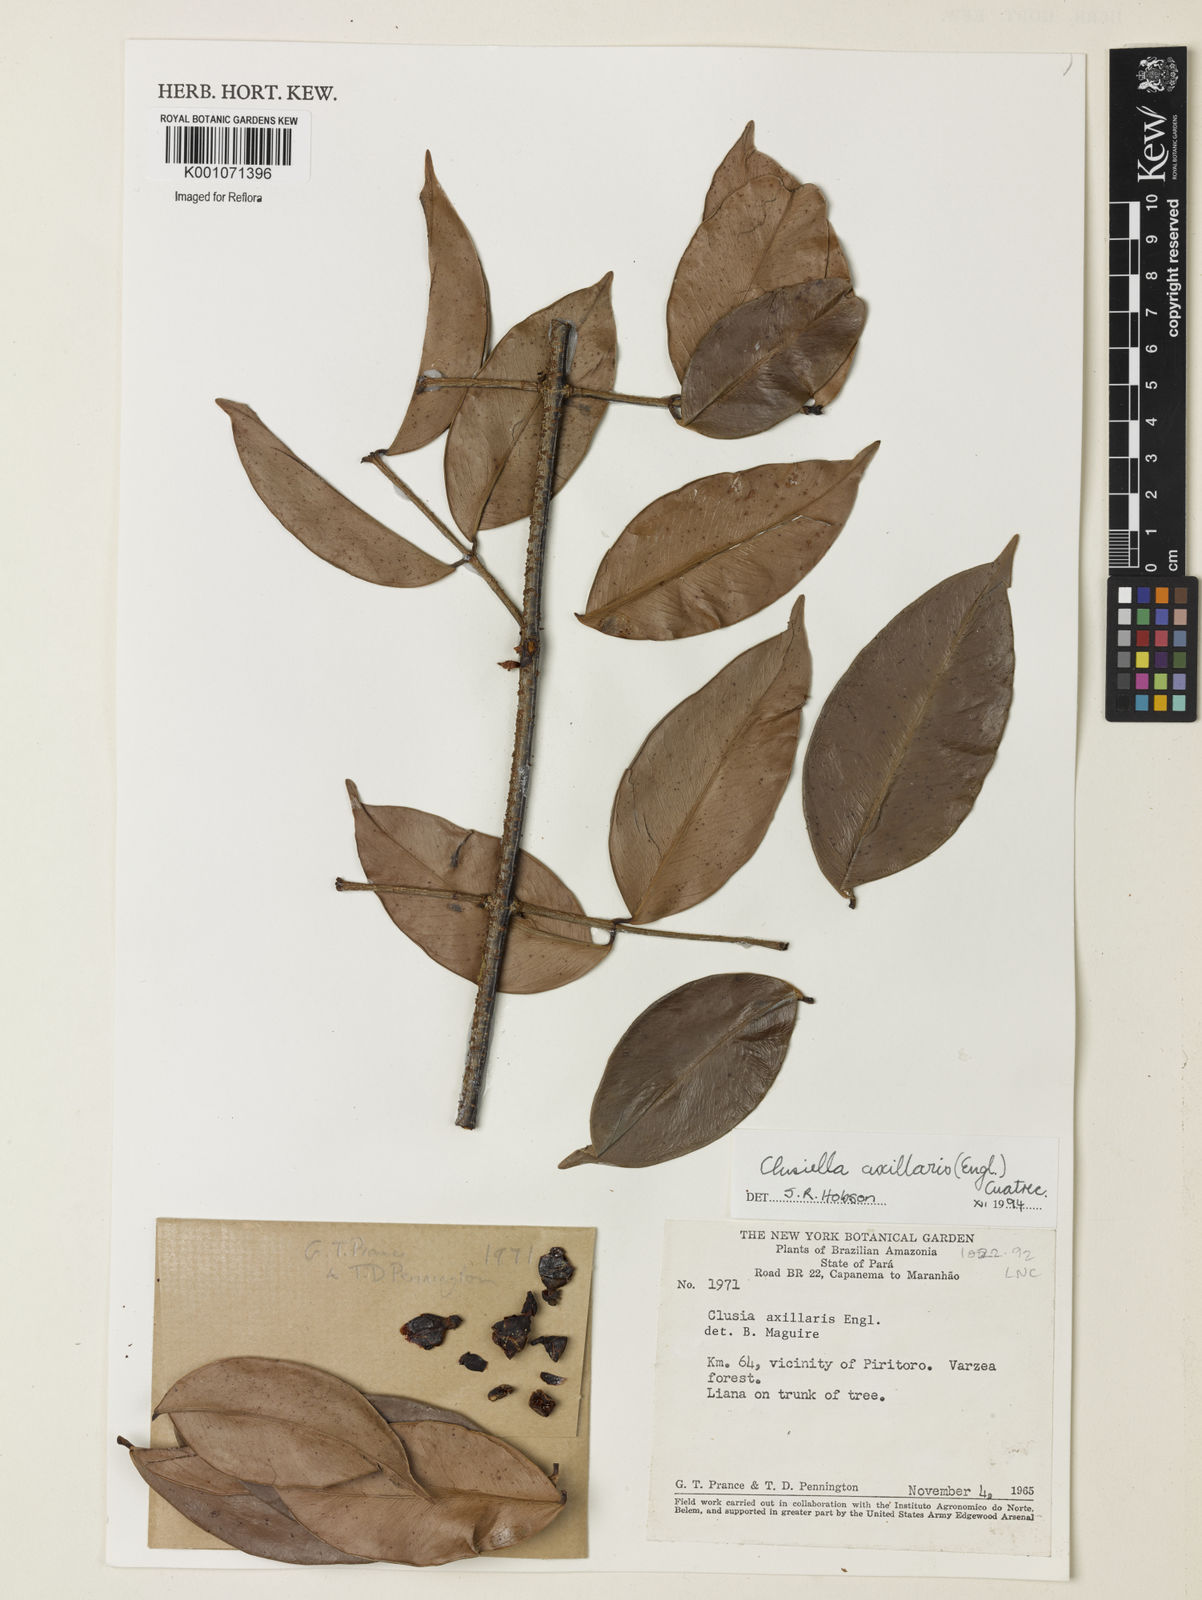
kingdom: Plantae
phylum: Tracheophyta
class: Magnoliopsida
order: Malpighiales
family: Calophyllaceae
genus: Clusiella
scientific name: Clusiella axillaris
